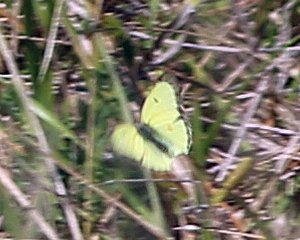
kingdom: Animalia
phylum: Arthropoda
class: Insecta
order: Lepidoptera
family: Pieridae
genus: Colias
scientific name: Colias philodice
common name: Clouded Sulphur
